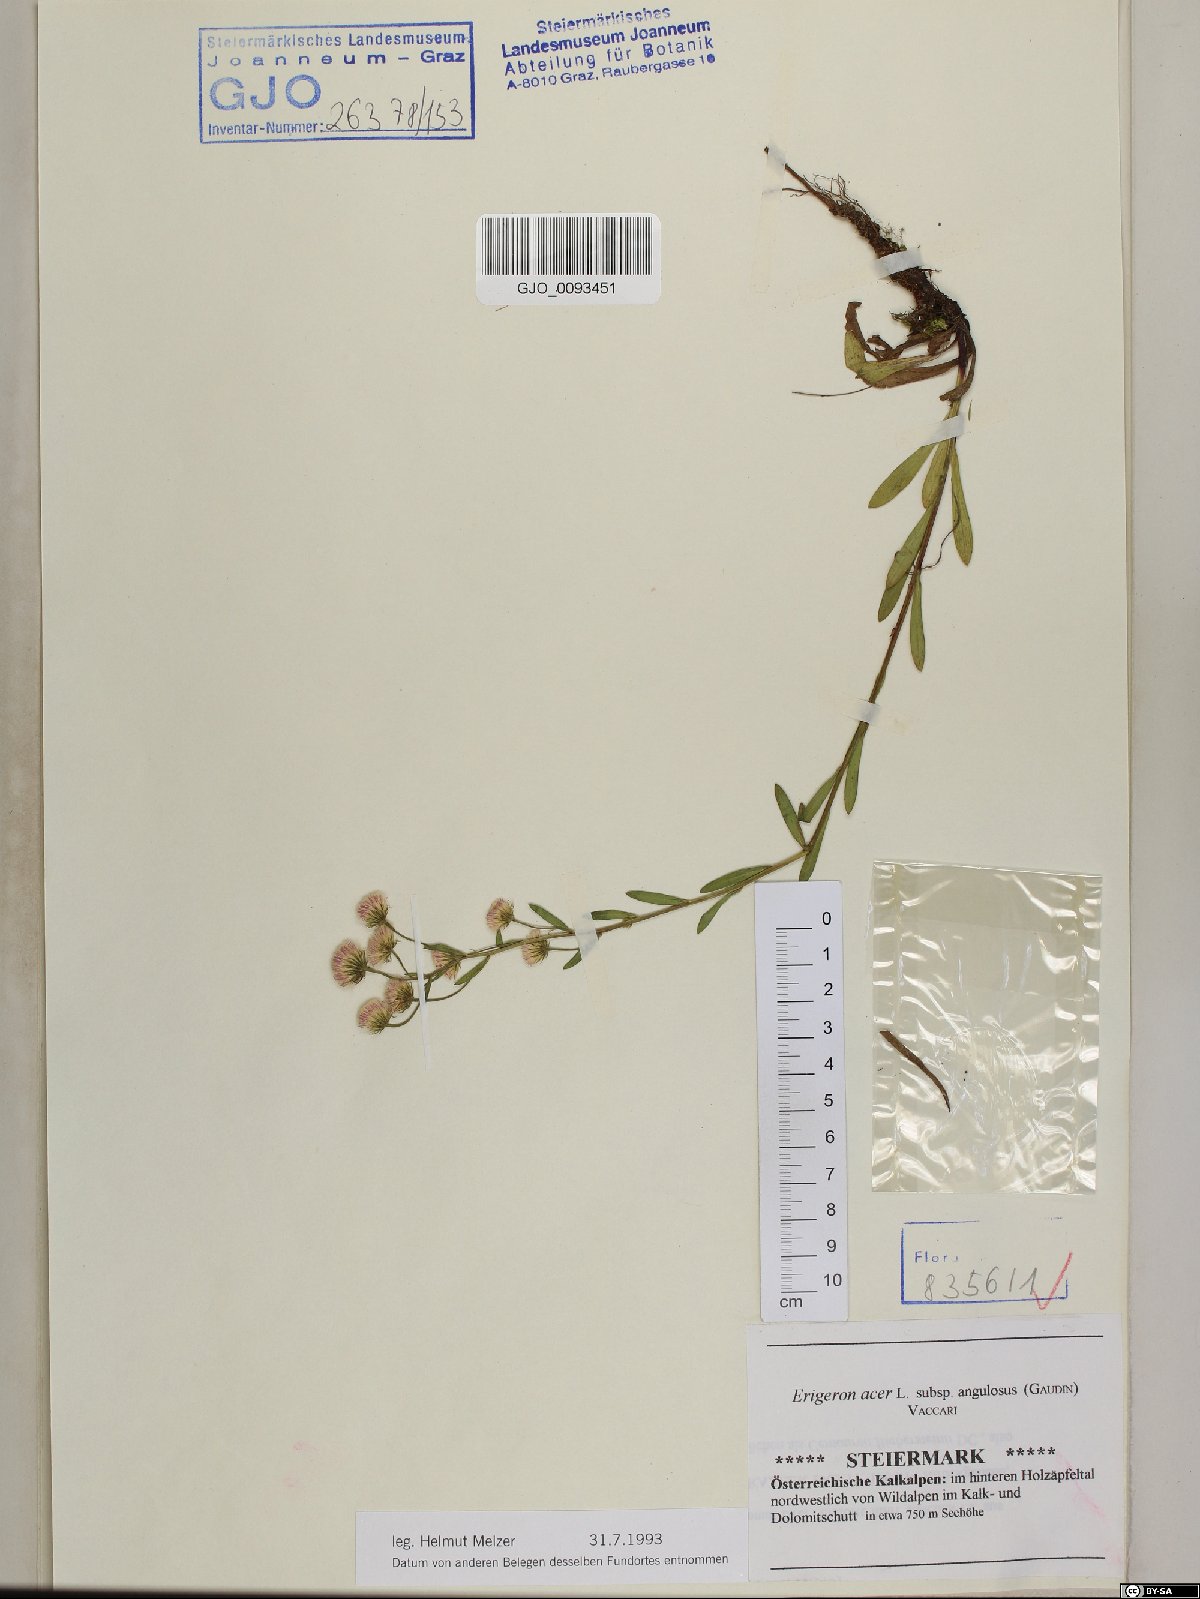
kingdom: Plantae
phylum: Tracheophyta
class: Magnoliopsida
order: Asterales
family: Asteraceae
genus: Erigeron
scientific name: Erigeron angulosus
